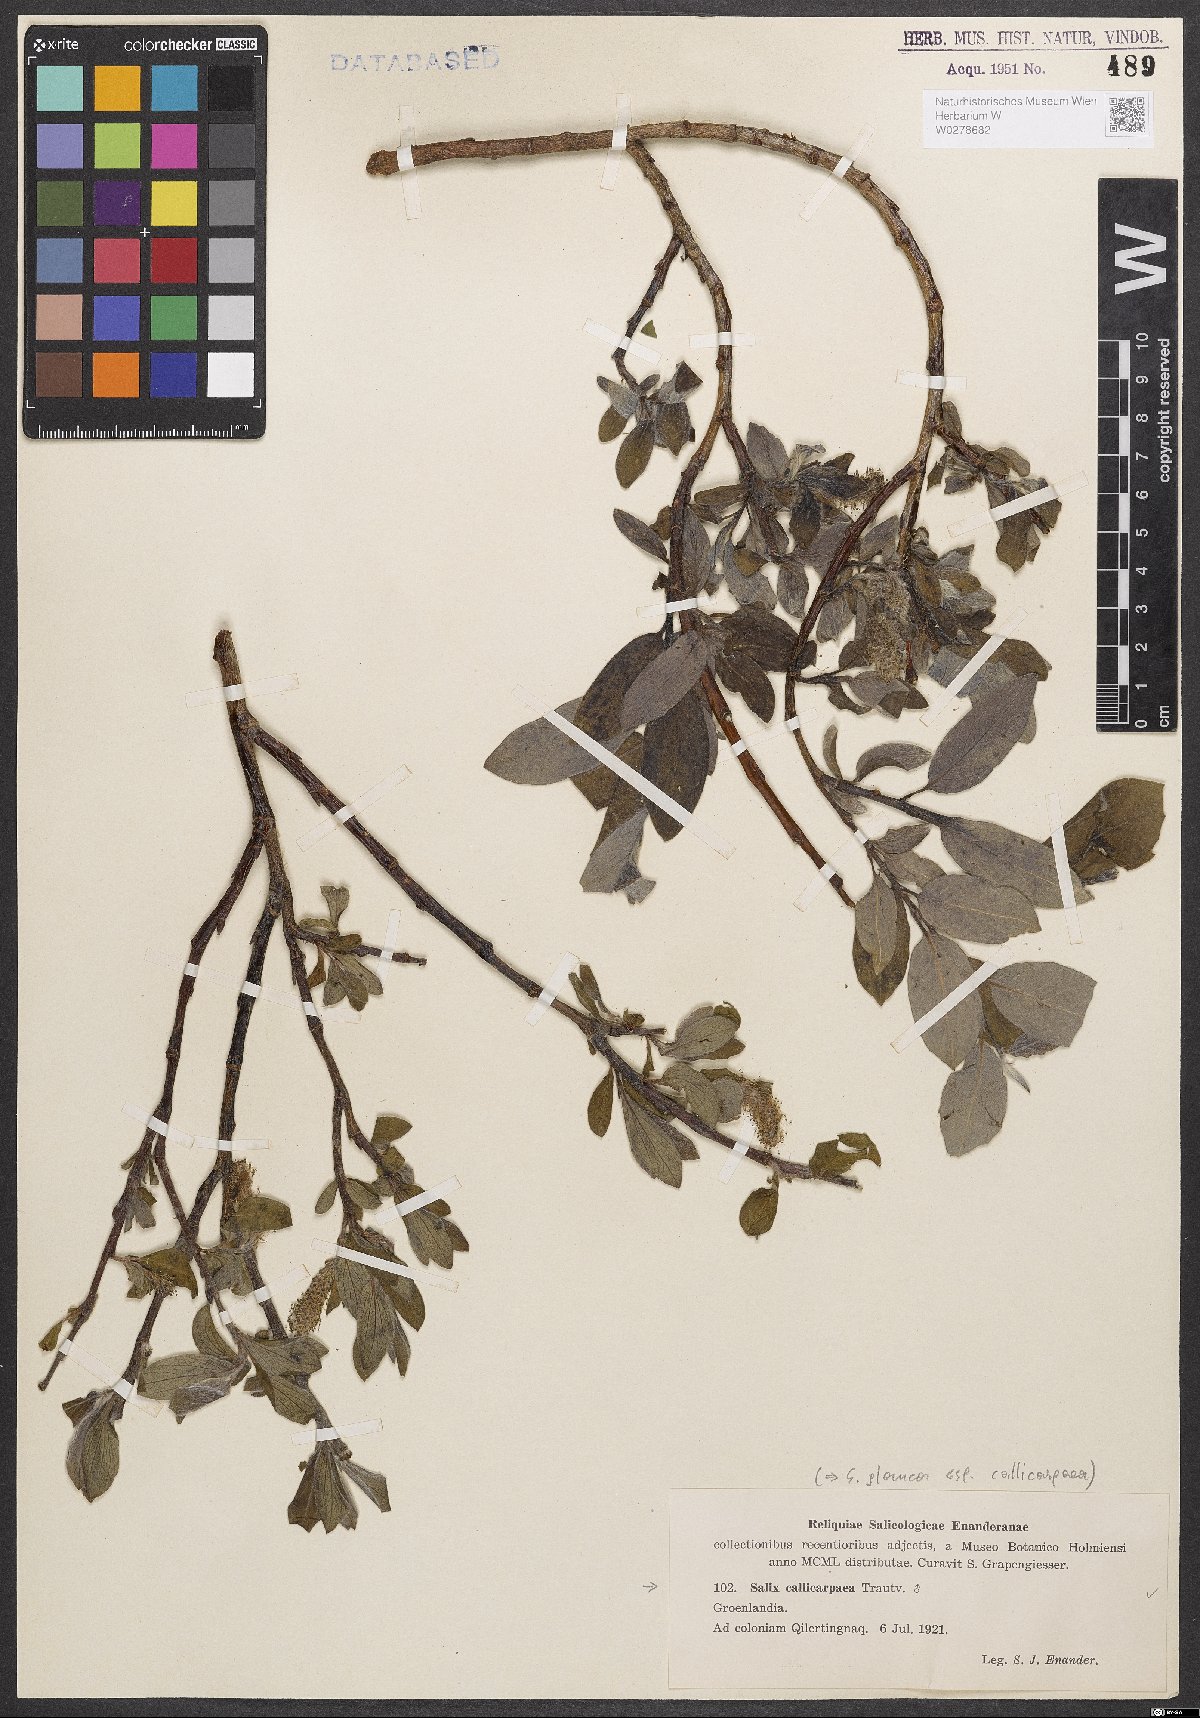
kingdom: Plantae
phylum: Tracheophyta
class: Magnoliopsida
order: Malpighiales
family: Salicaceae
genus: Salix
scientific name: Salix glauca
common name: Glaucous willow
